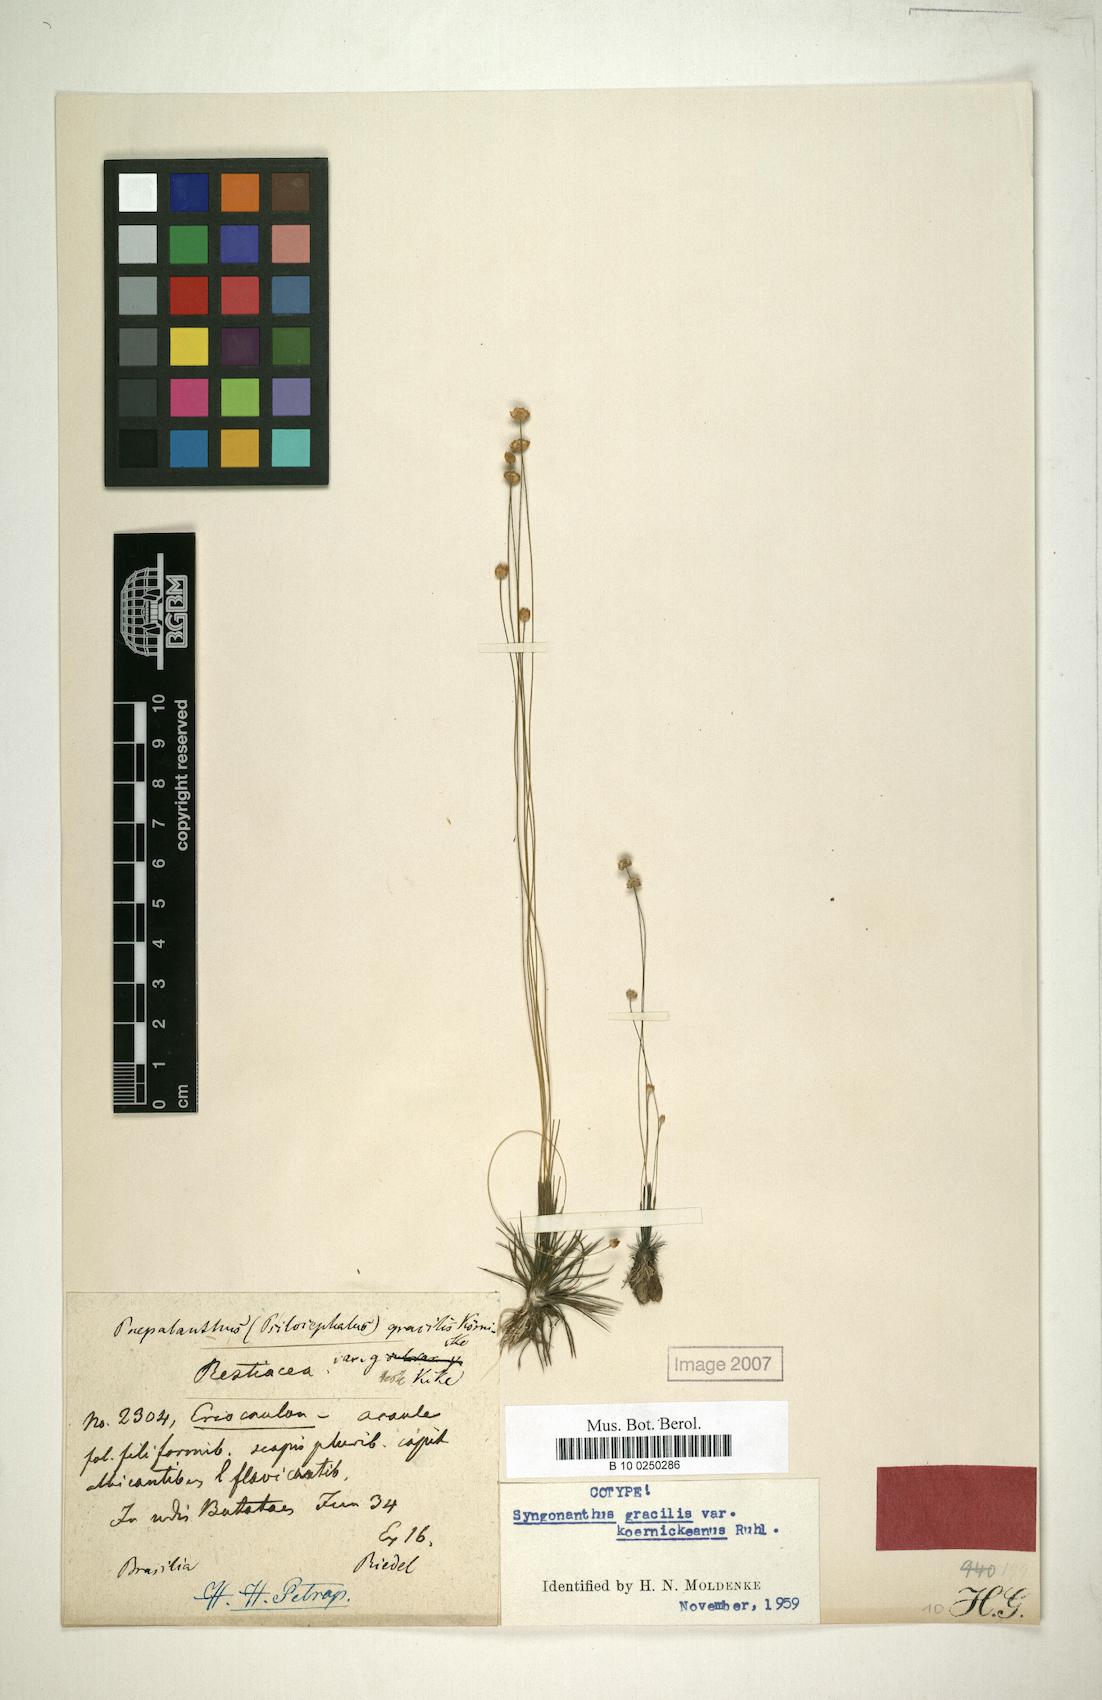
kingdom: Plantae
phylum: Tracheophyta
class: Liliopsida
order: Poales
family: Eriocaulaceae
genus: Syngonanthus
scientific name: Syngonanthus gracilis
